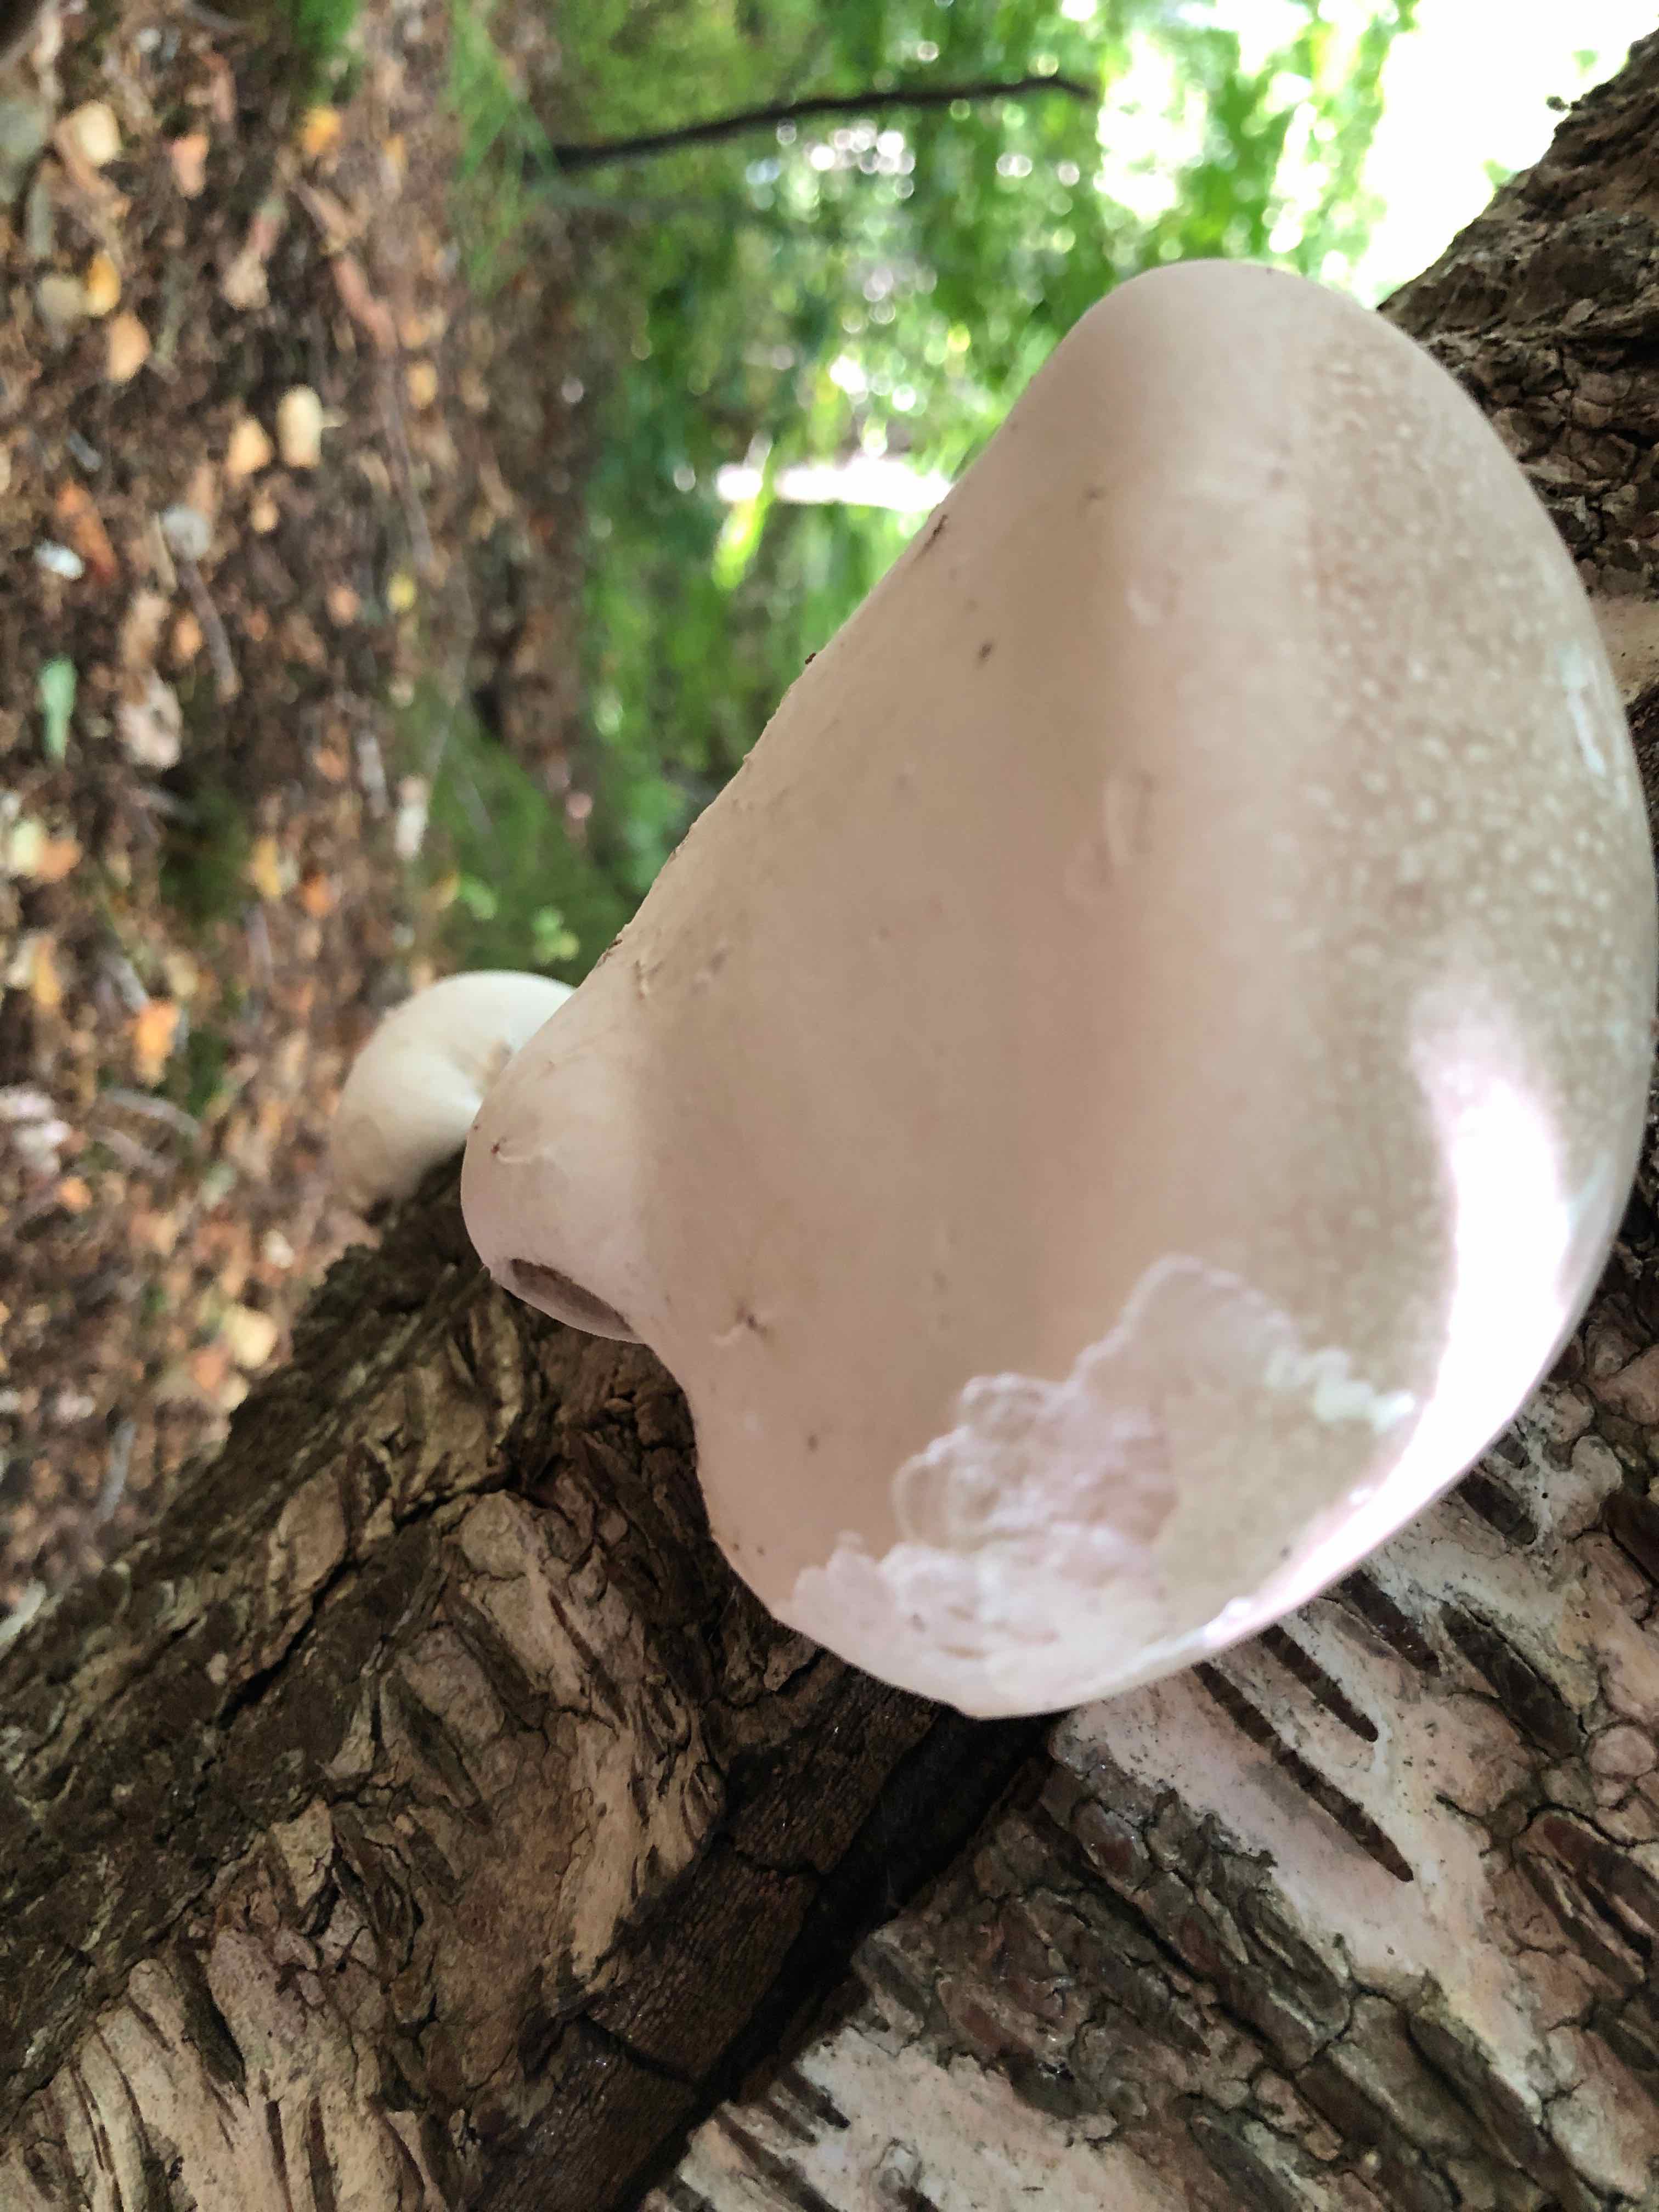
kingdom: Fungi
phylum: Basidiomycota
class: Agaricomycetes
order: Polyporales
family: Fomitopsidaceae
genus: Fomitopsis
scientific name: Fomitopsis betulina
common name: birkeporesvamp
